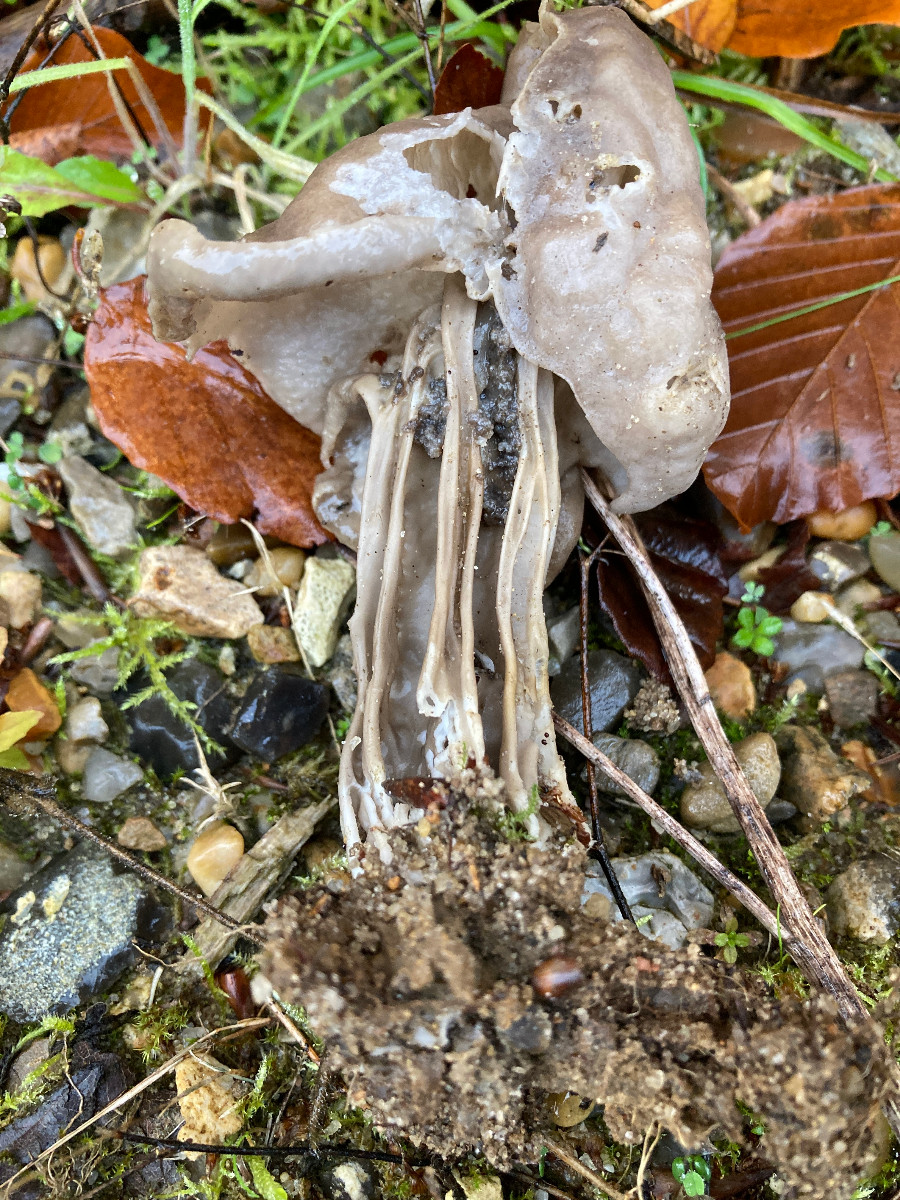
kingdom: Fungi
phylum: Ascomycota
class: Pezizomycetes
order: Pezizales
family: Helvellaceae
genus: Helvella
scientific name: Helvella lacunosa
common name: grubet foldhat
